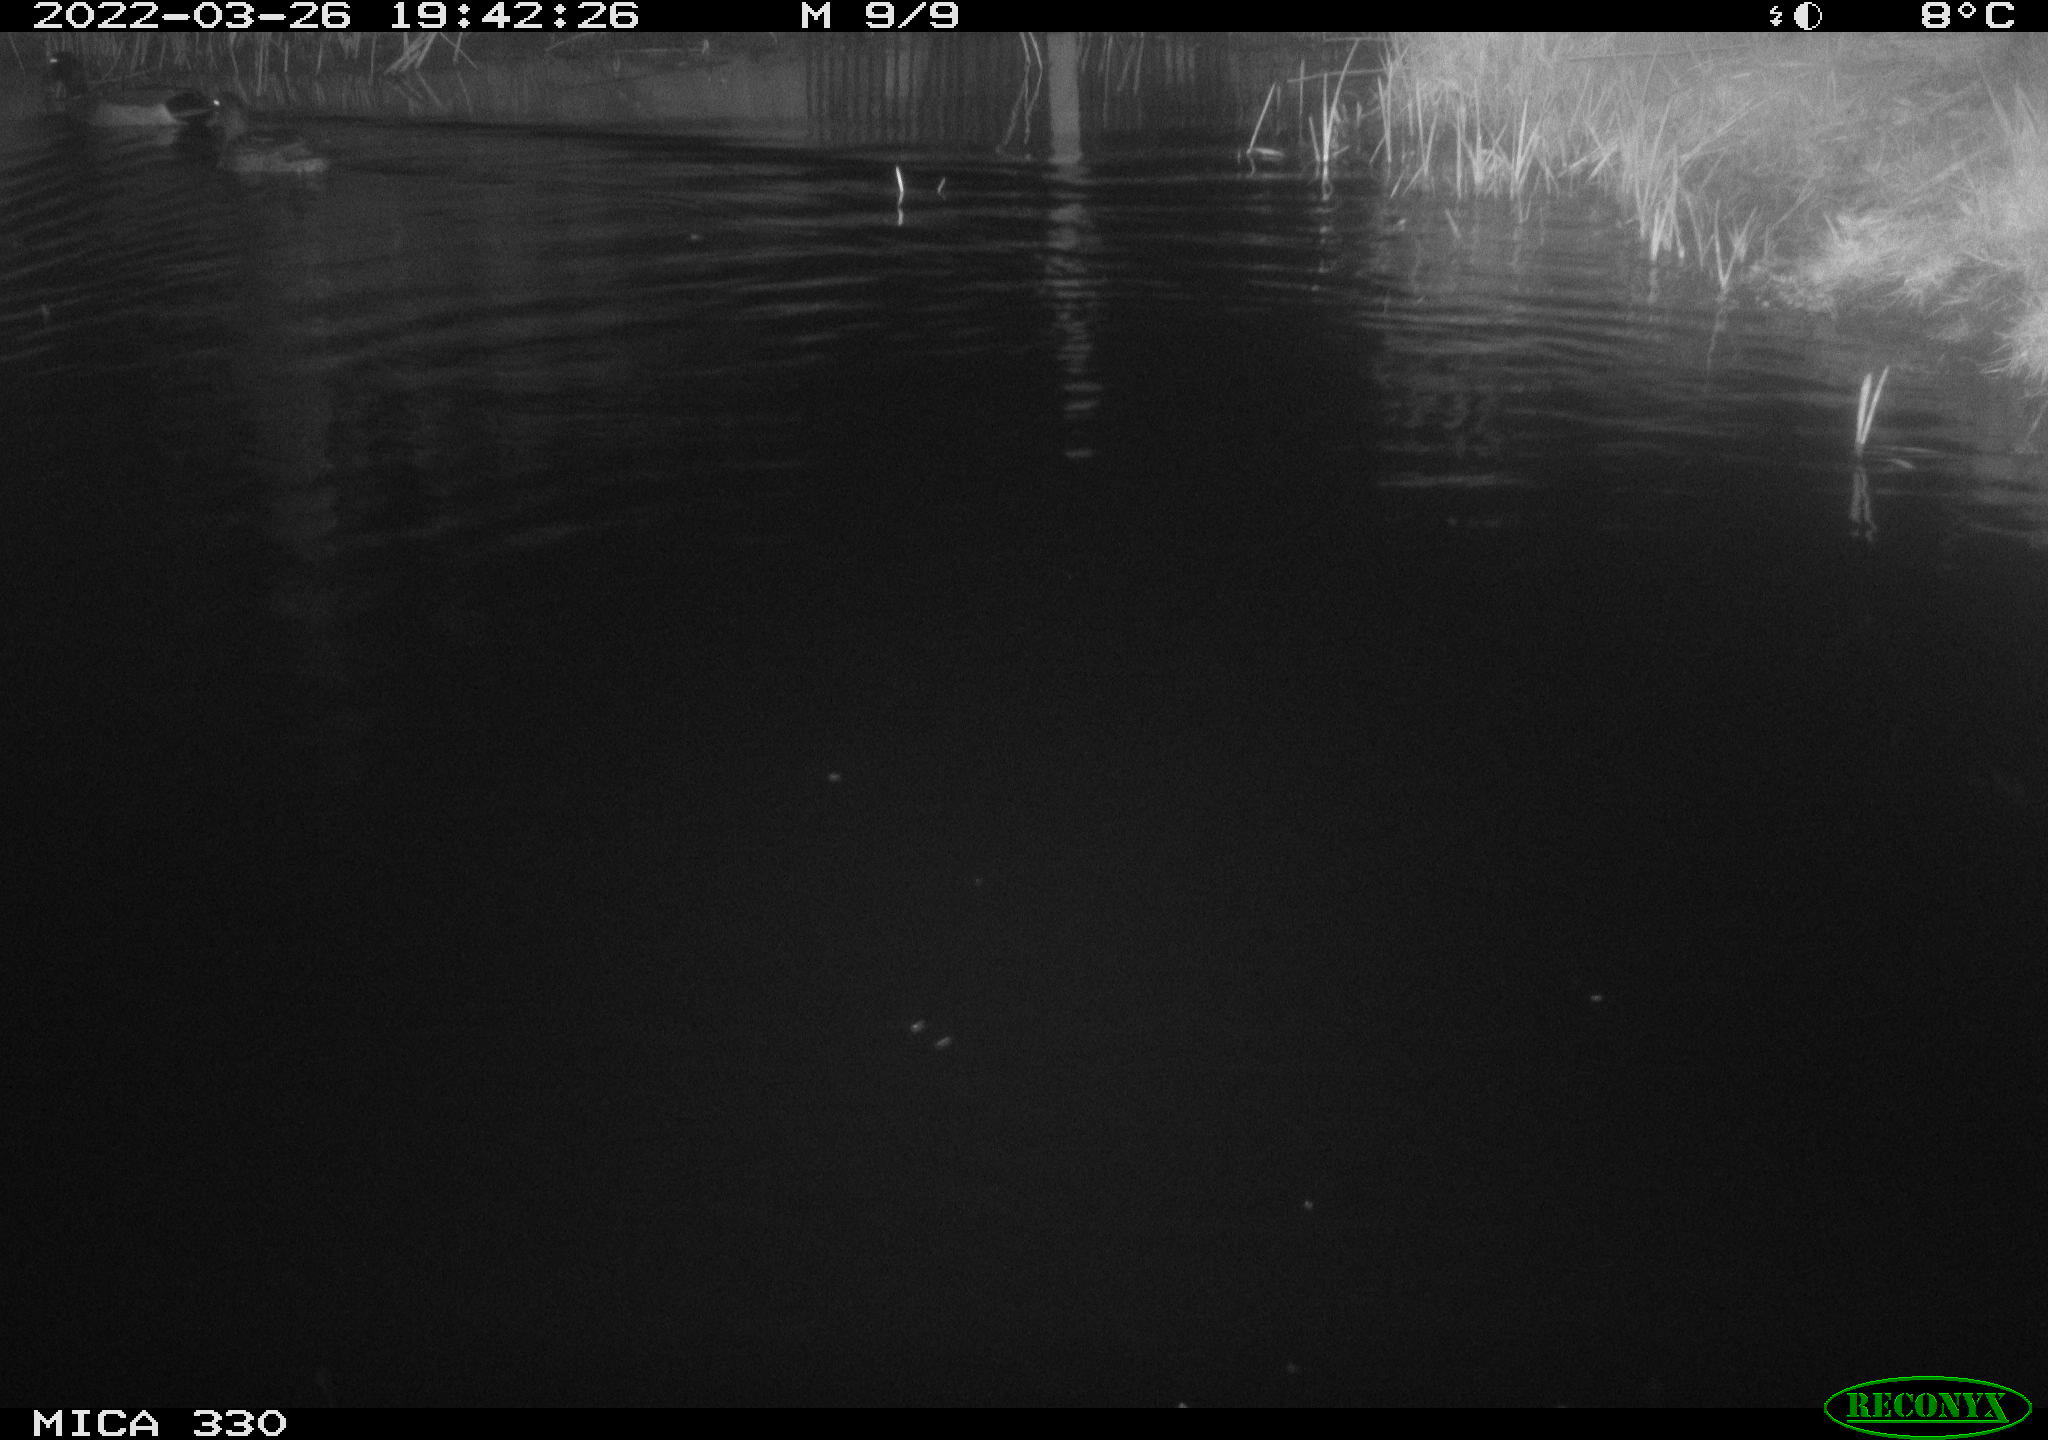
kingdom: Animalia
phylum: Chordata
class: Aves
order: Anseriformes
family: Anatidae
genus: Anas
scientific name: Anas platyrhynchos
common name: Mallard
